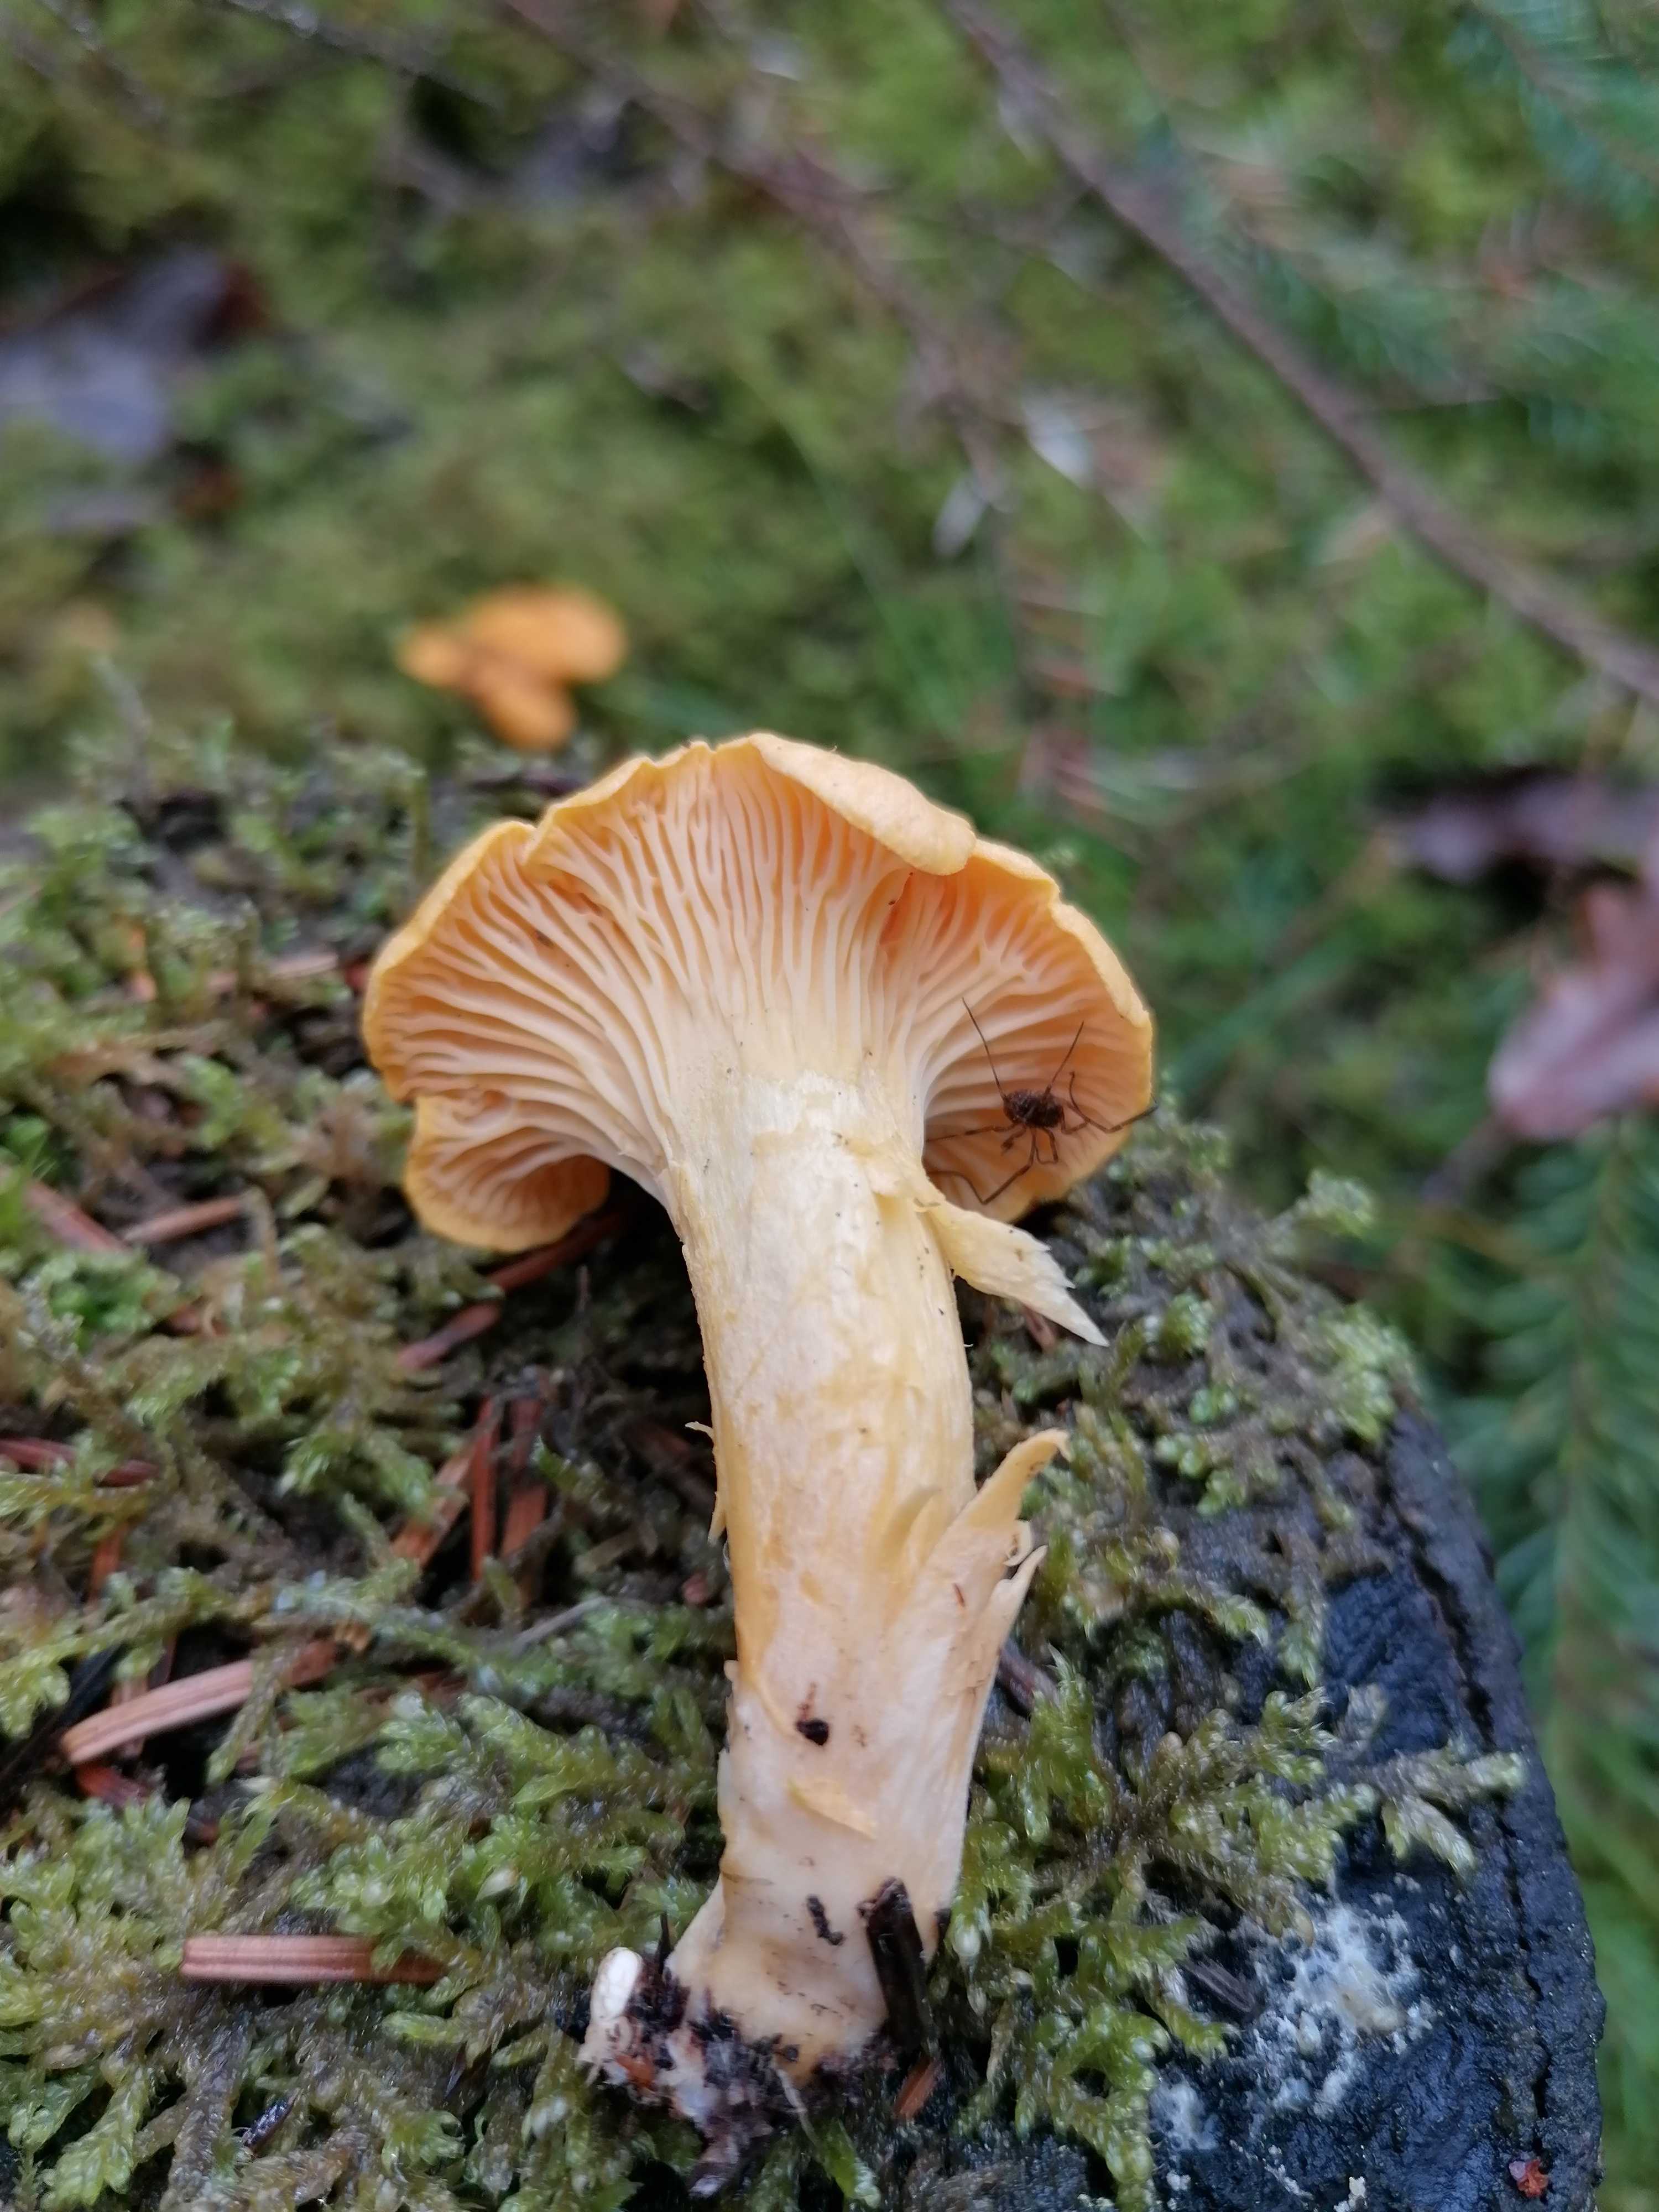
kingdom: Fungi
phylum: Basidiomycota
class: Agaricomycetes
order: Cantharellales
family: Hydnaceae
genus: Cantharellus
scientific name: Cantharellus cibarius
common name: almindelig kantarel
